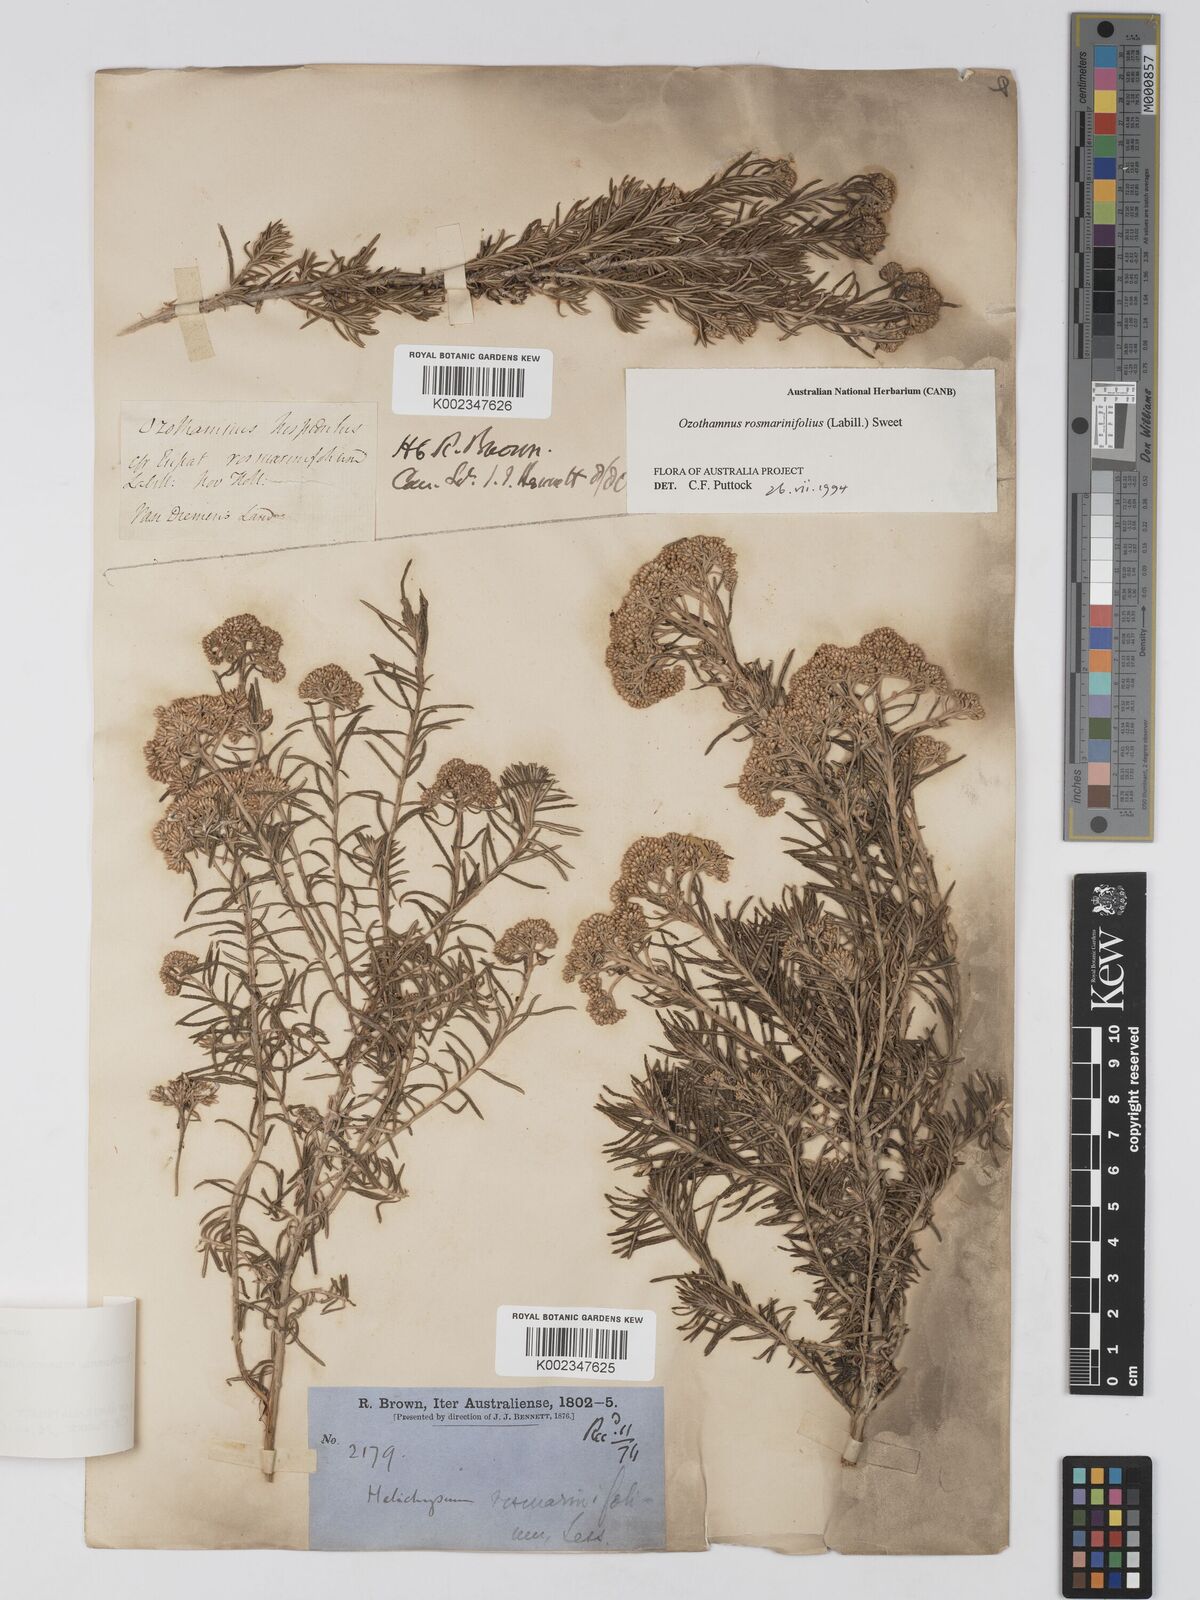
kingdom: Plantae
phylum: Tracheophyta
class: Magnoliopsida
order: Asterales
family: Asteraceae
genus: Ozothamnus
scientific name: Ozothamnus rosmarinifolius
